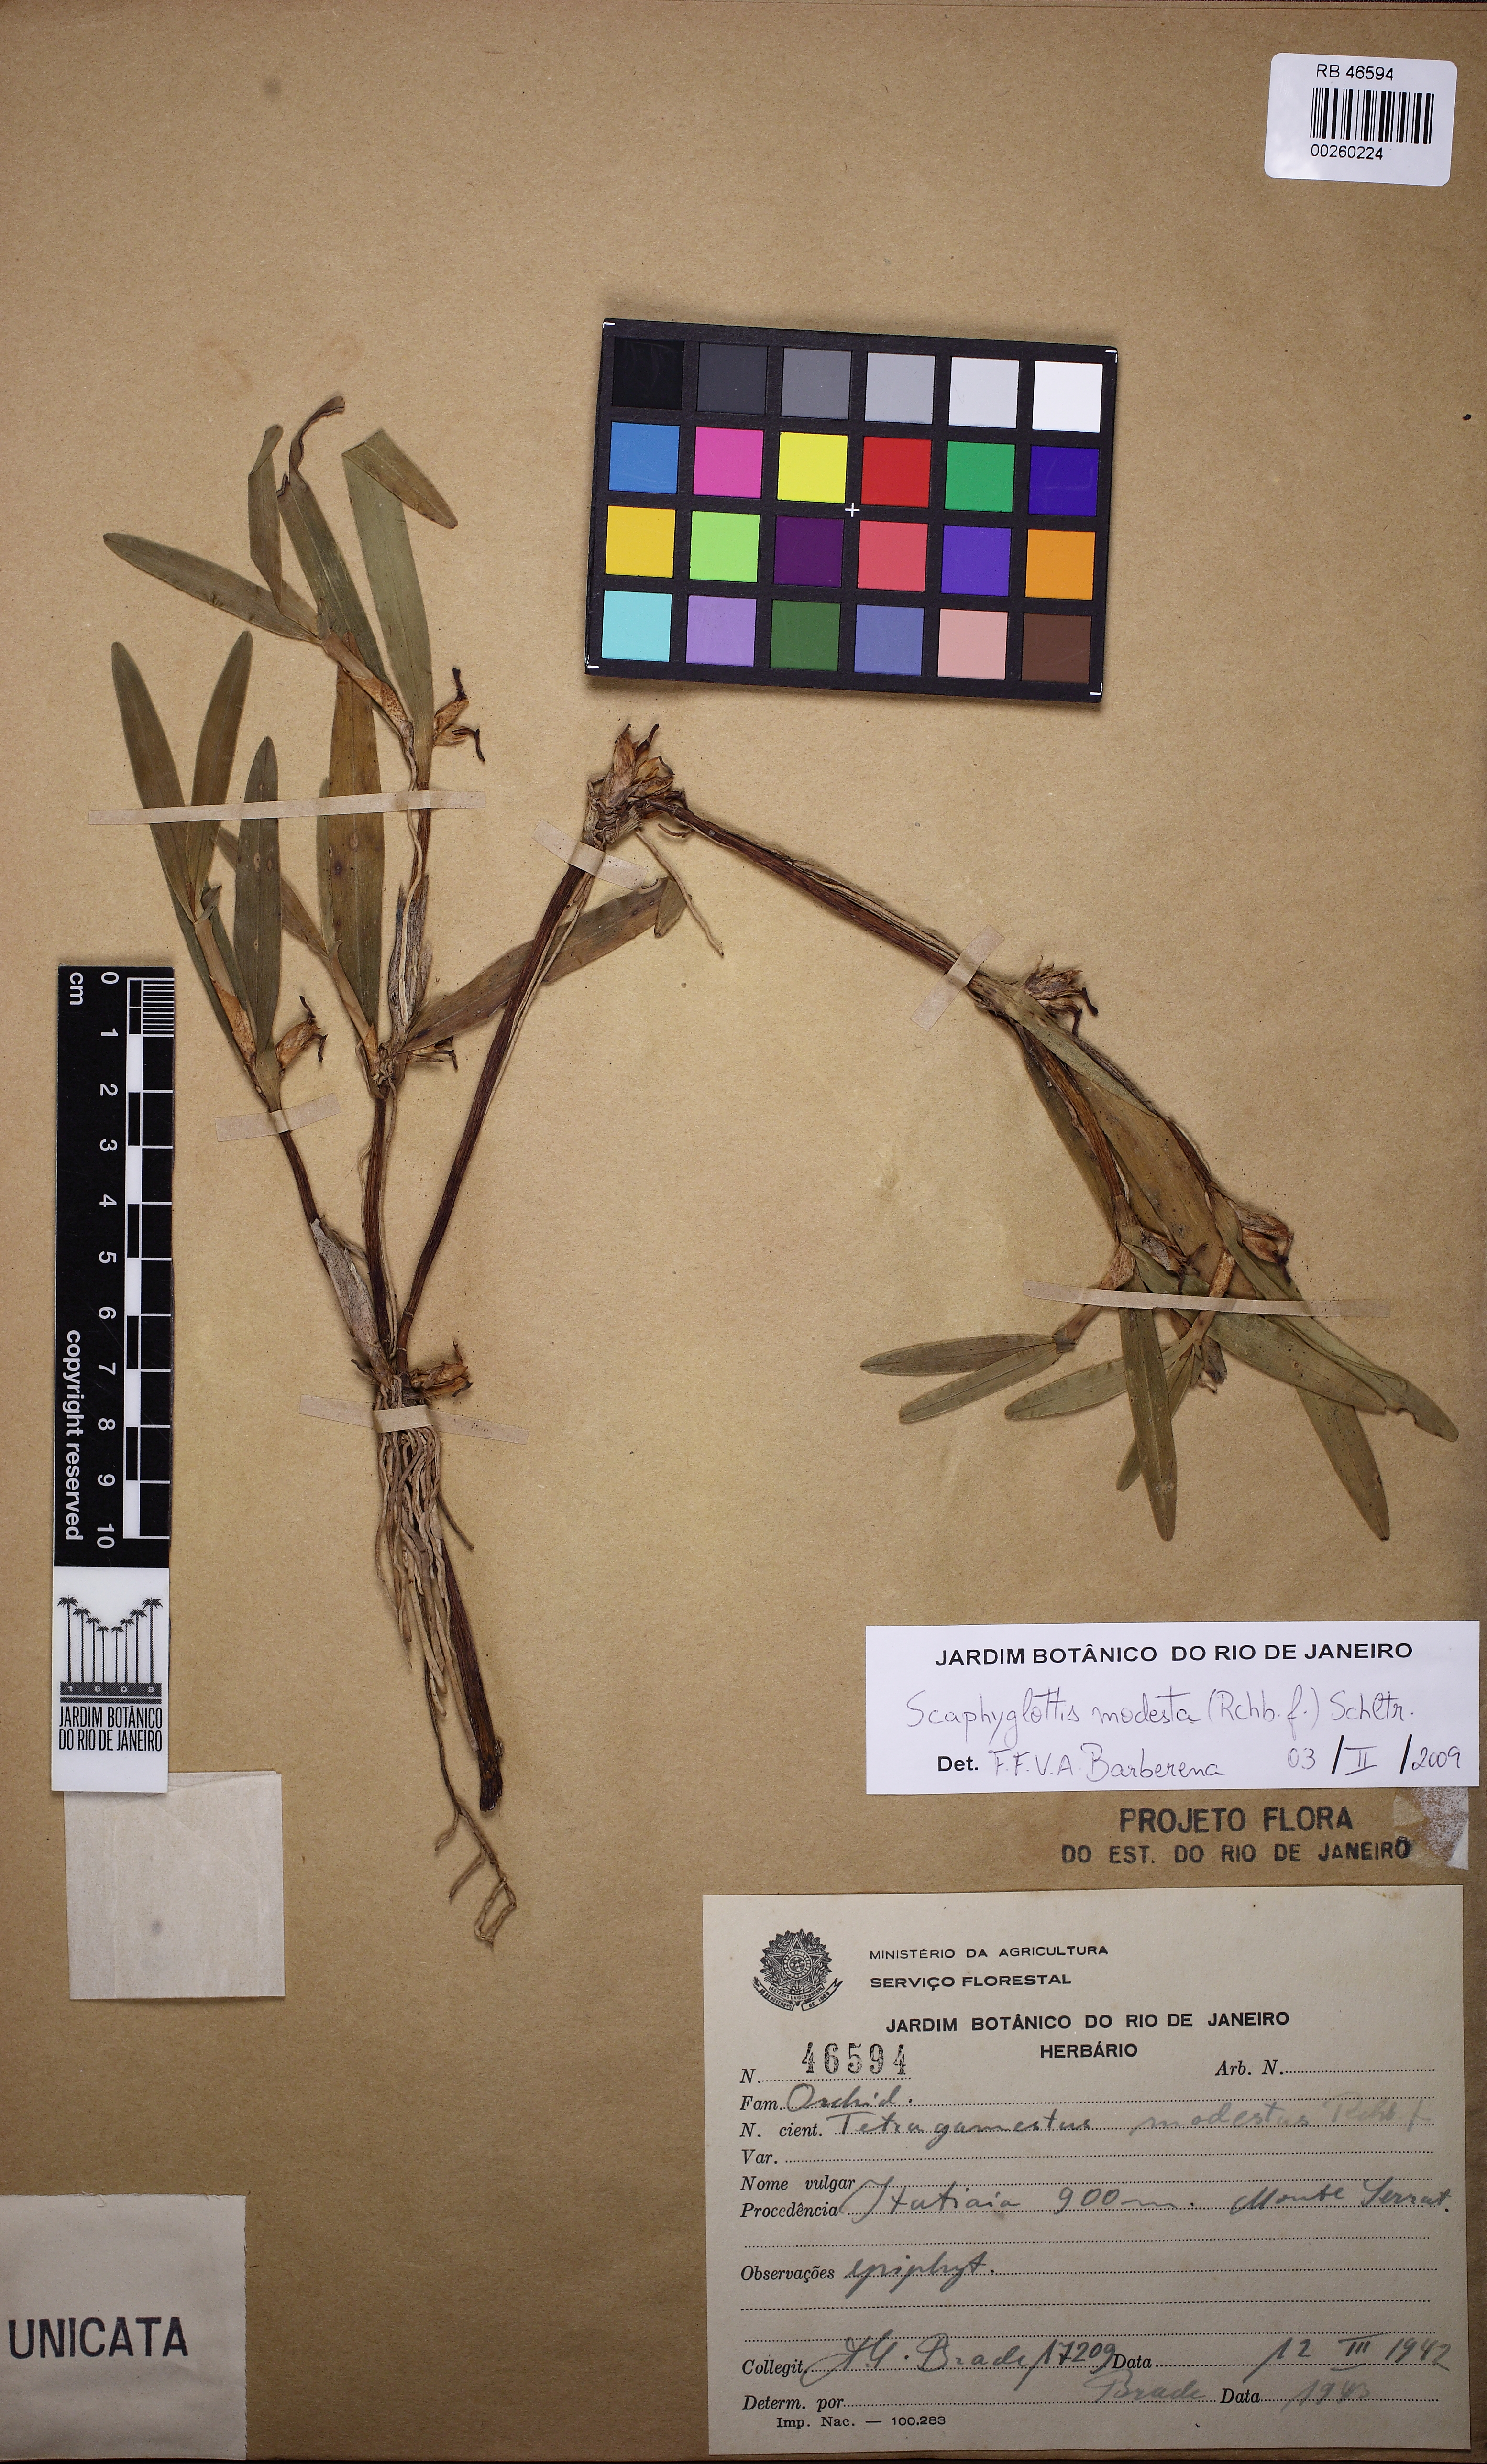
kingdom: Plantae
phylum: Tracheophyta
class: Liliopsida
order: Asparagales
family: Orchidaceae
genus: Scaphyglottis
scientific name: Scaphyglottis modesta
